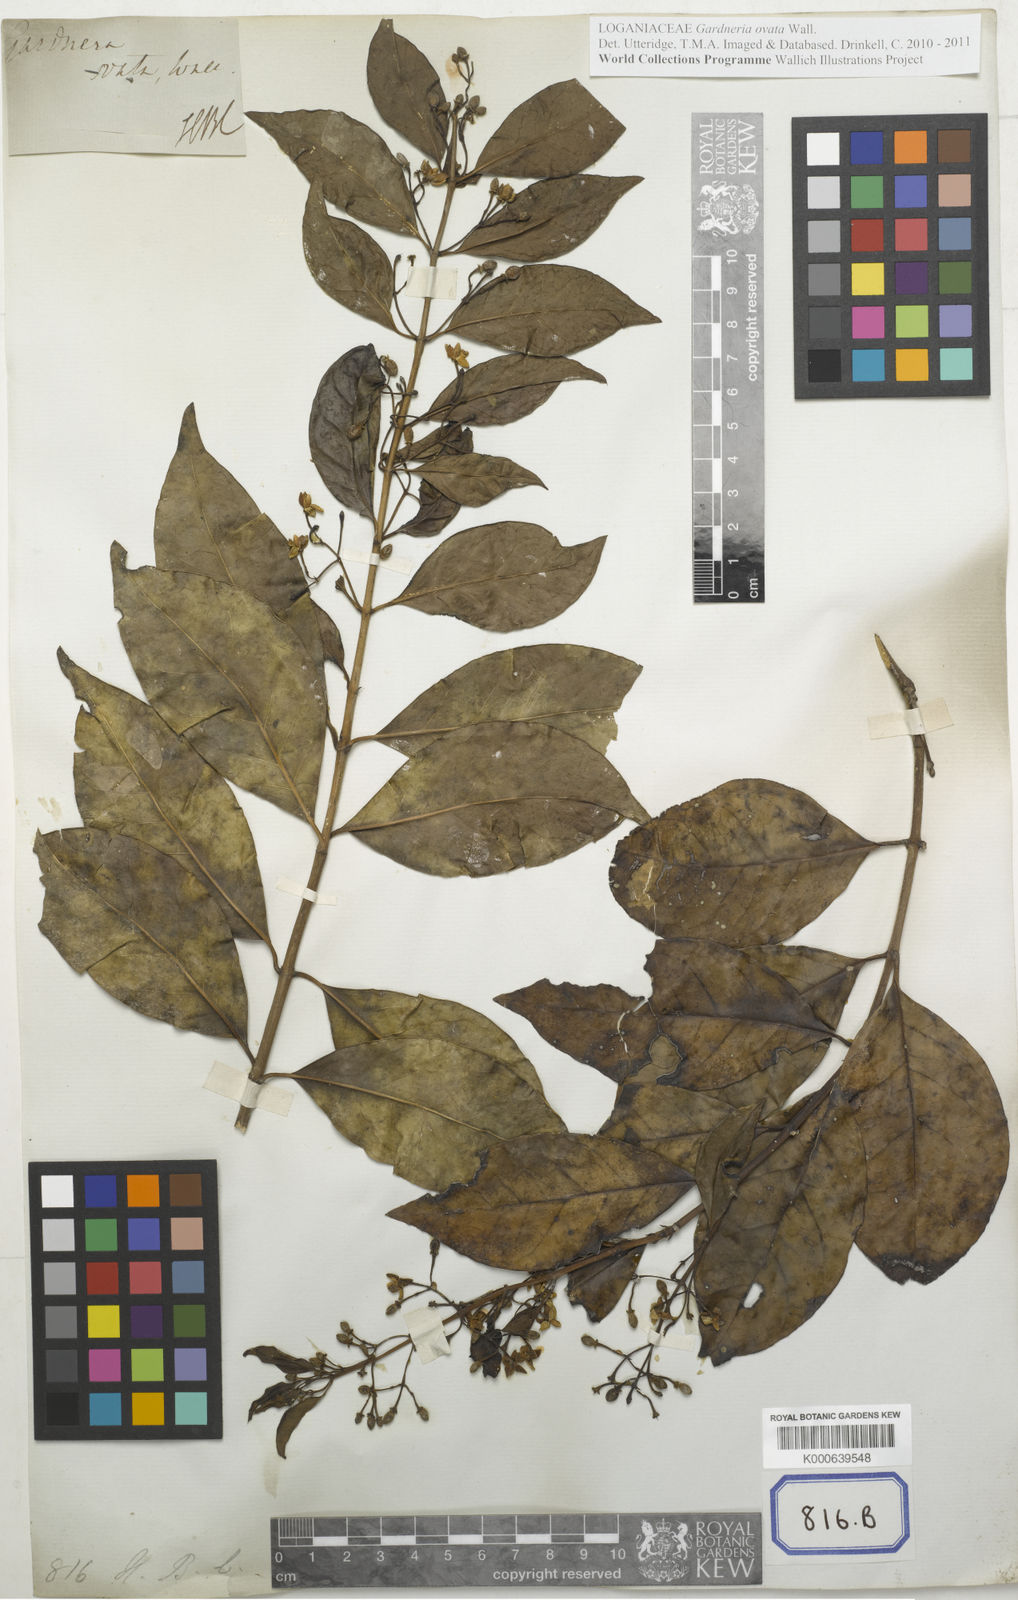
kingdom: Plantae
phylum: Tracheophyta
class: Magnoliopsida
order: Gentianales
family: Loganiaceae
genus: Gardneria
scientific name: Gardneria ovata
